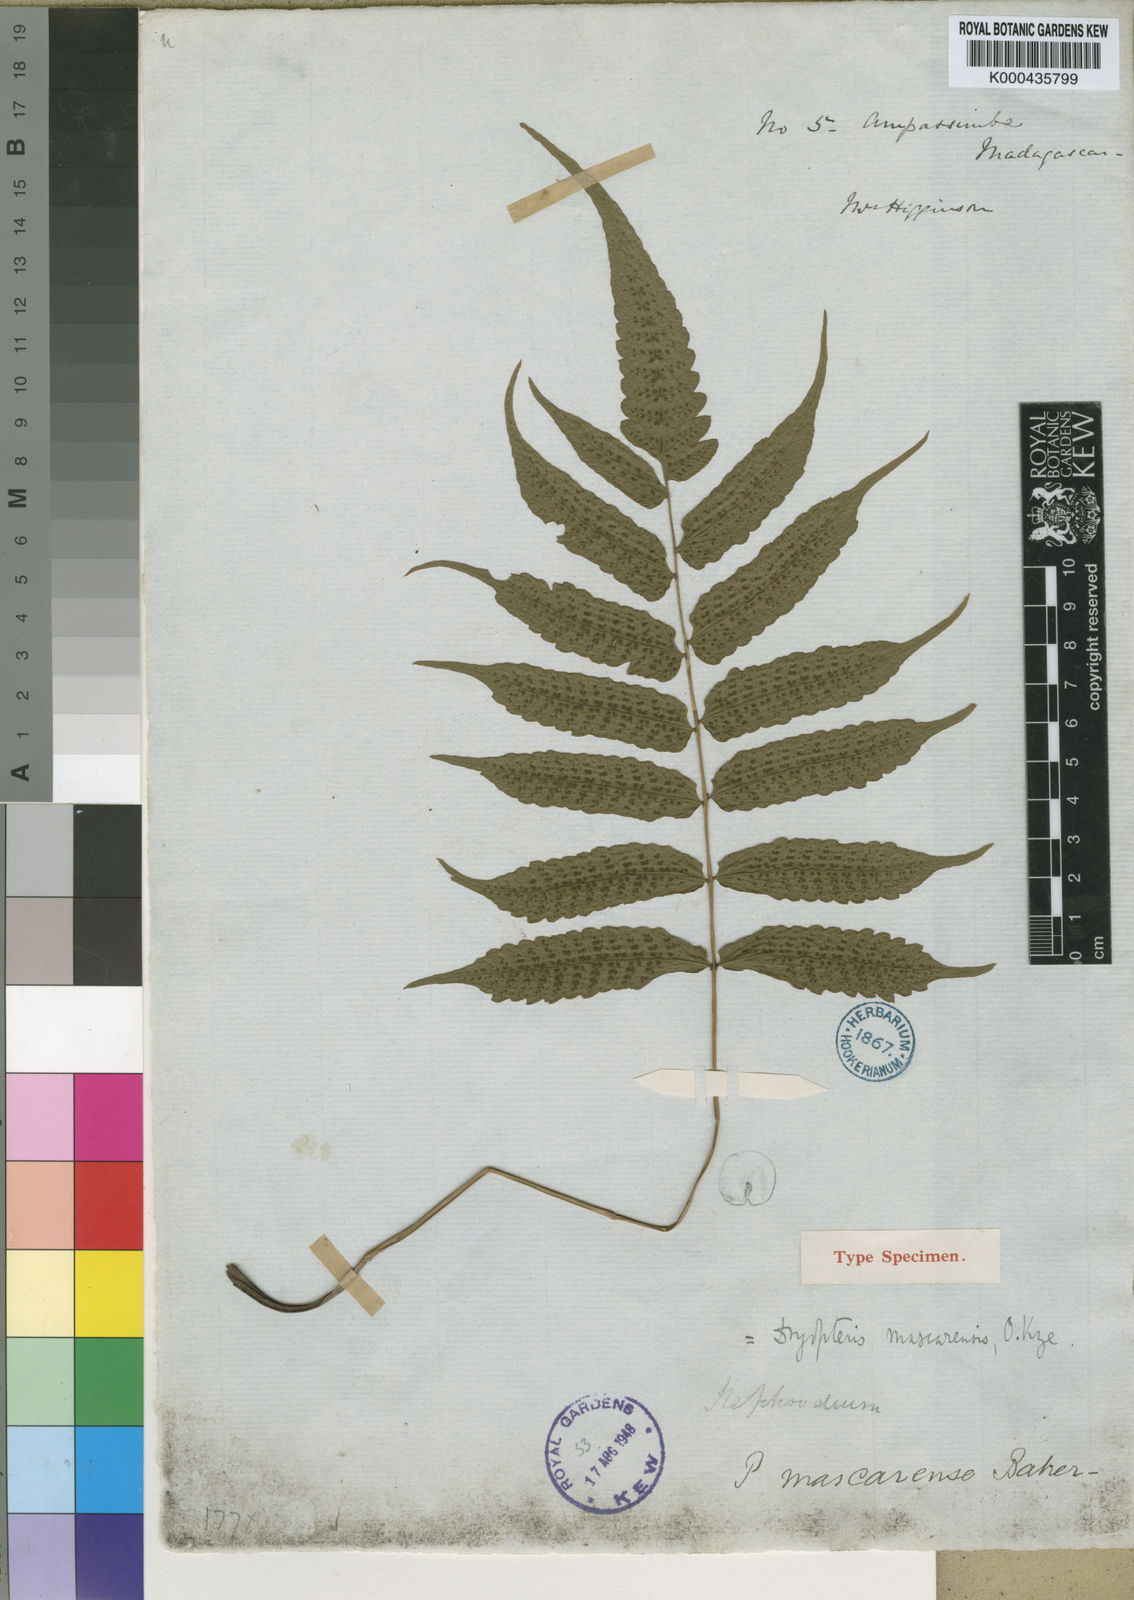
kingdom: Plantae
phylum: Tracheophyta
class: Polypodiopsida
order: Polypodiales
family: Thelypteridaceae
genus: Christella
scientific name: Christella distans
